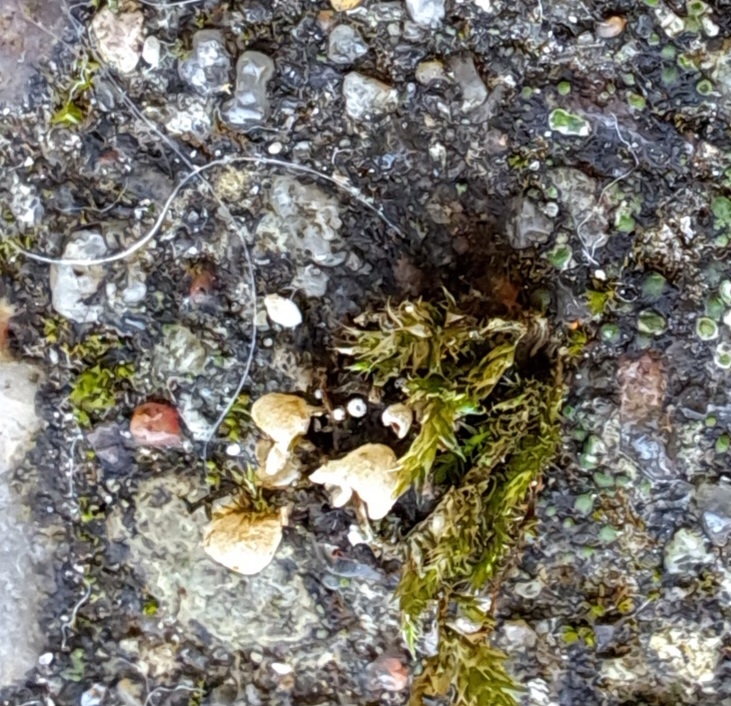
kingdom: Fungi
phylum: Basidiomycota
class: Agaricomycetes
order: Agaricales
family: Chromocyphellaceae
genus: Chromocyphella
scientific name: Chromocyphella muscicola
